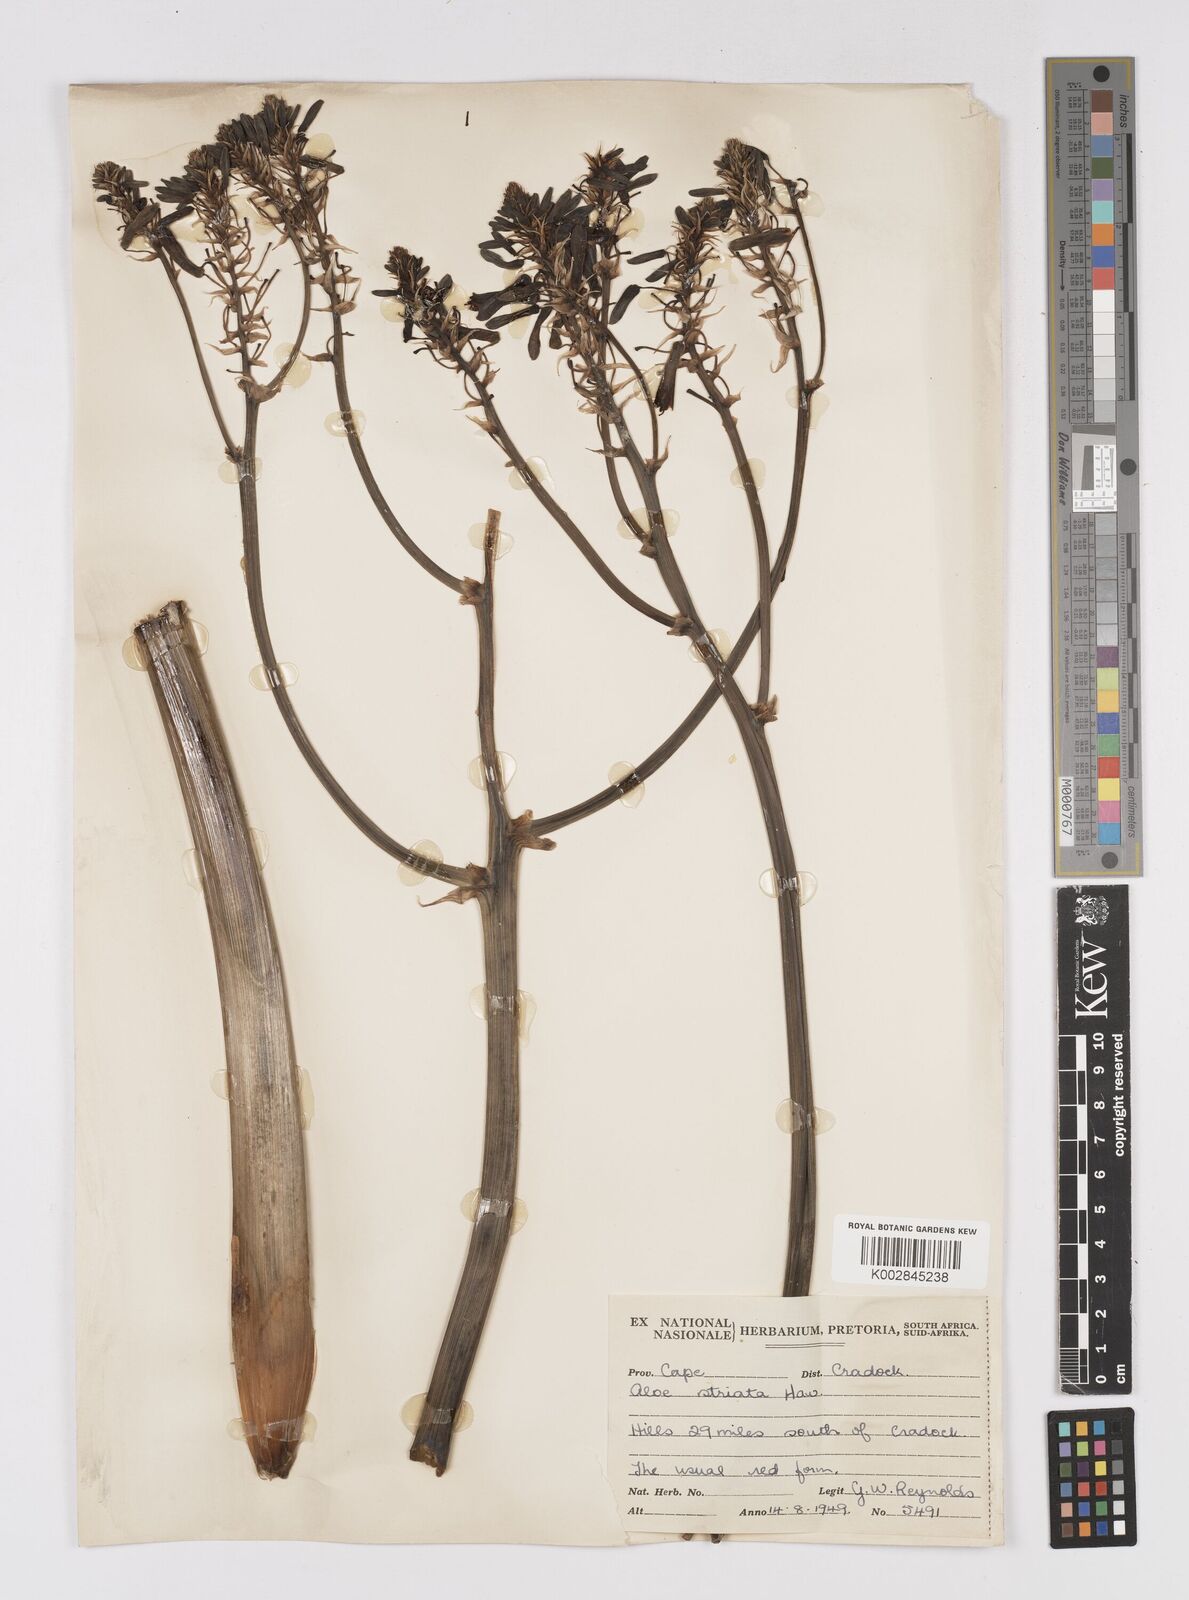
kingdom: Plantae
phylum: Tracheophyta
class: Liliopsida
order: Asparagales
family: Asphodelaceae
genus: Aloe
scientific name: Aloe striata
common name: Coral aloe
